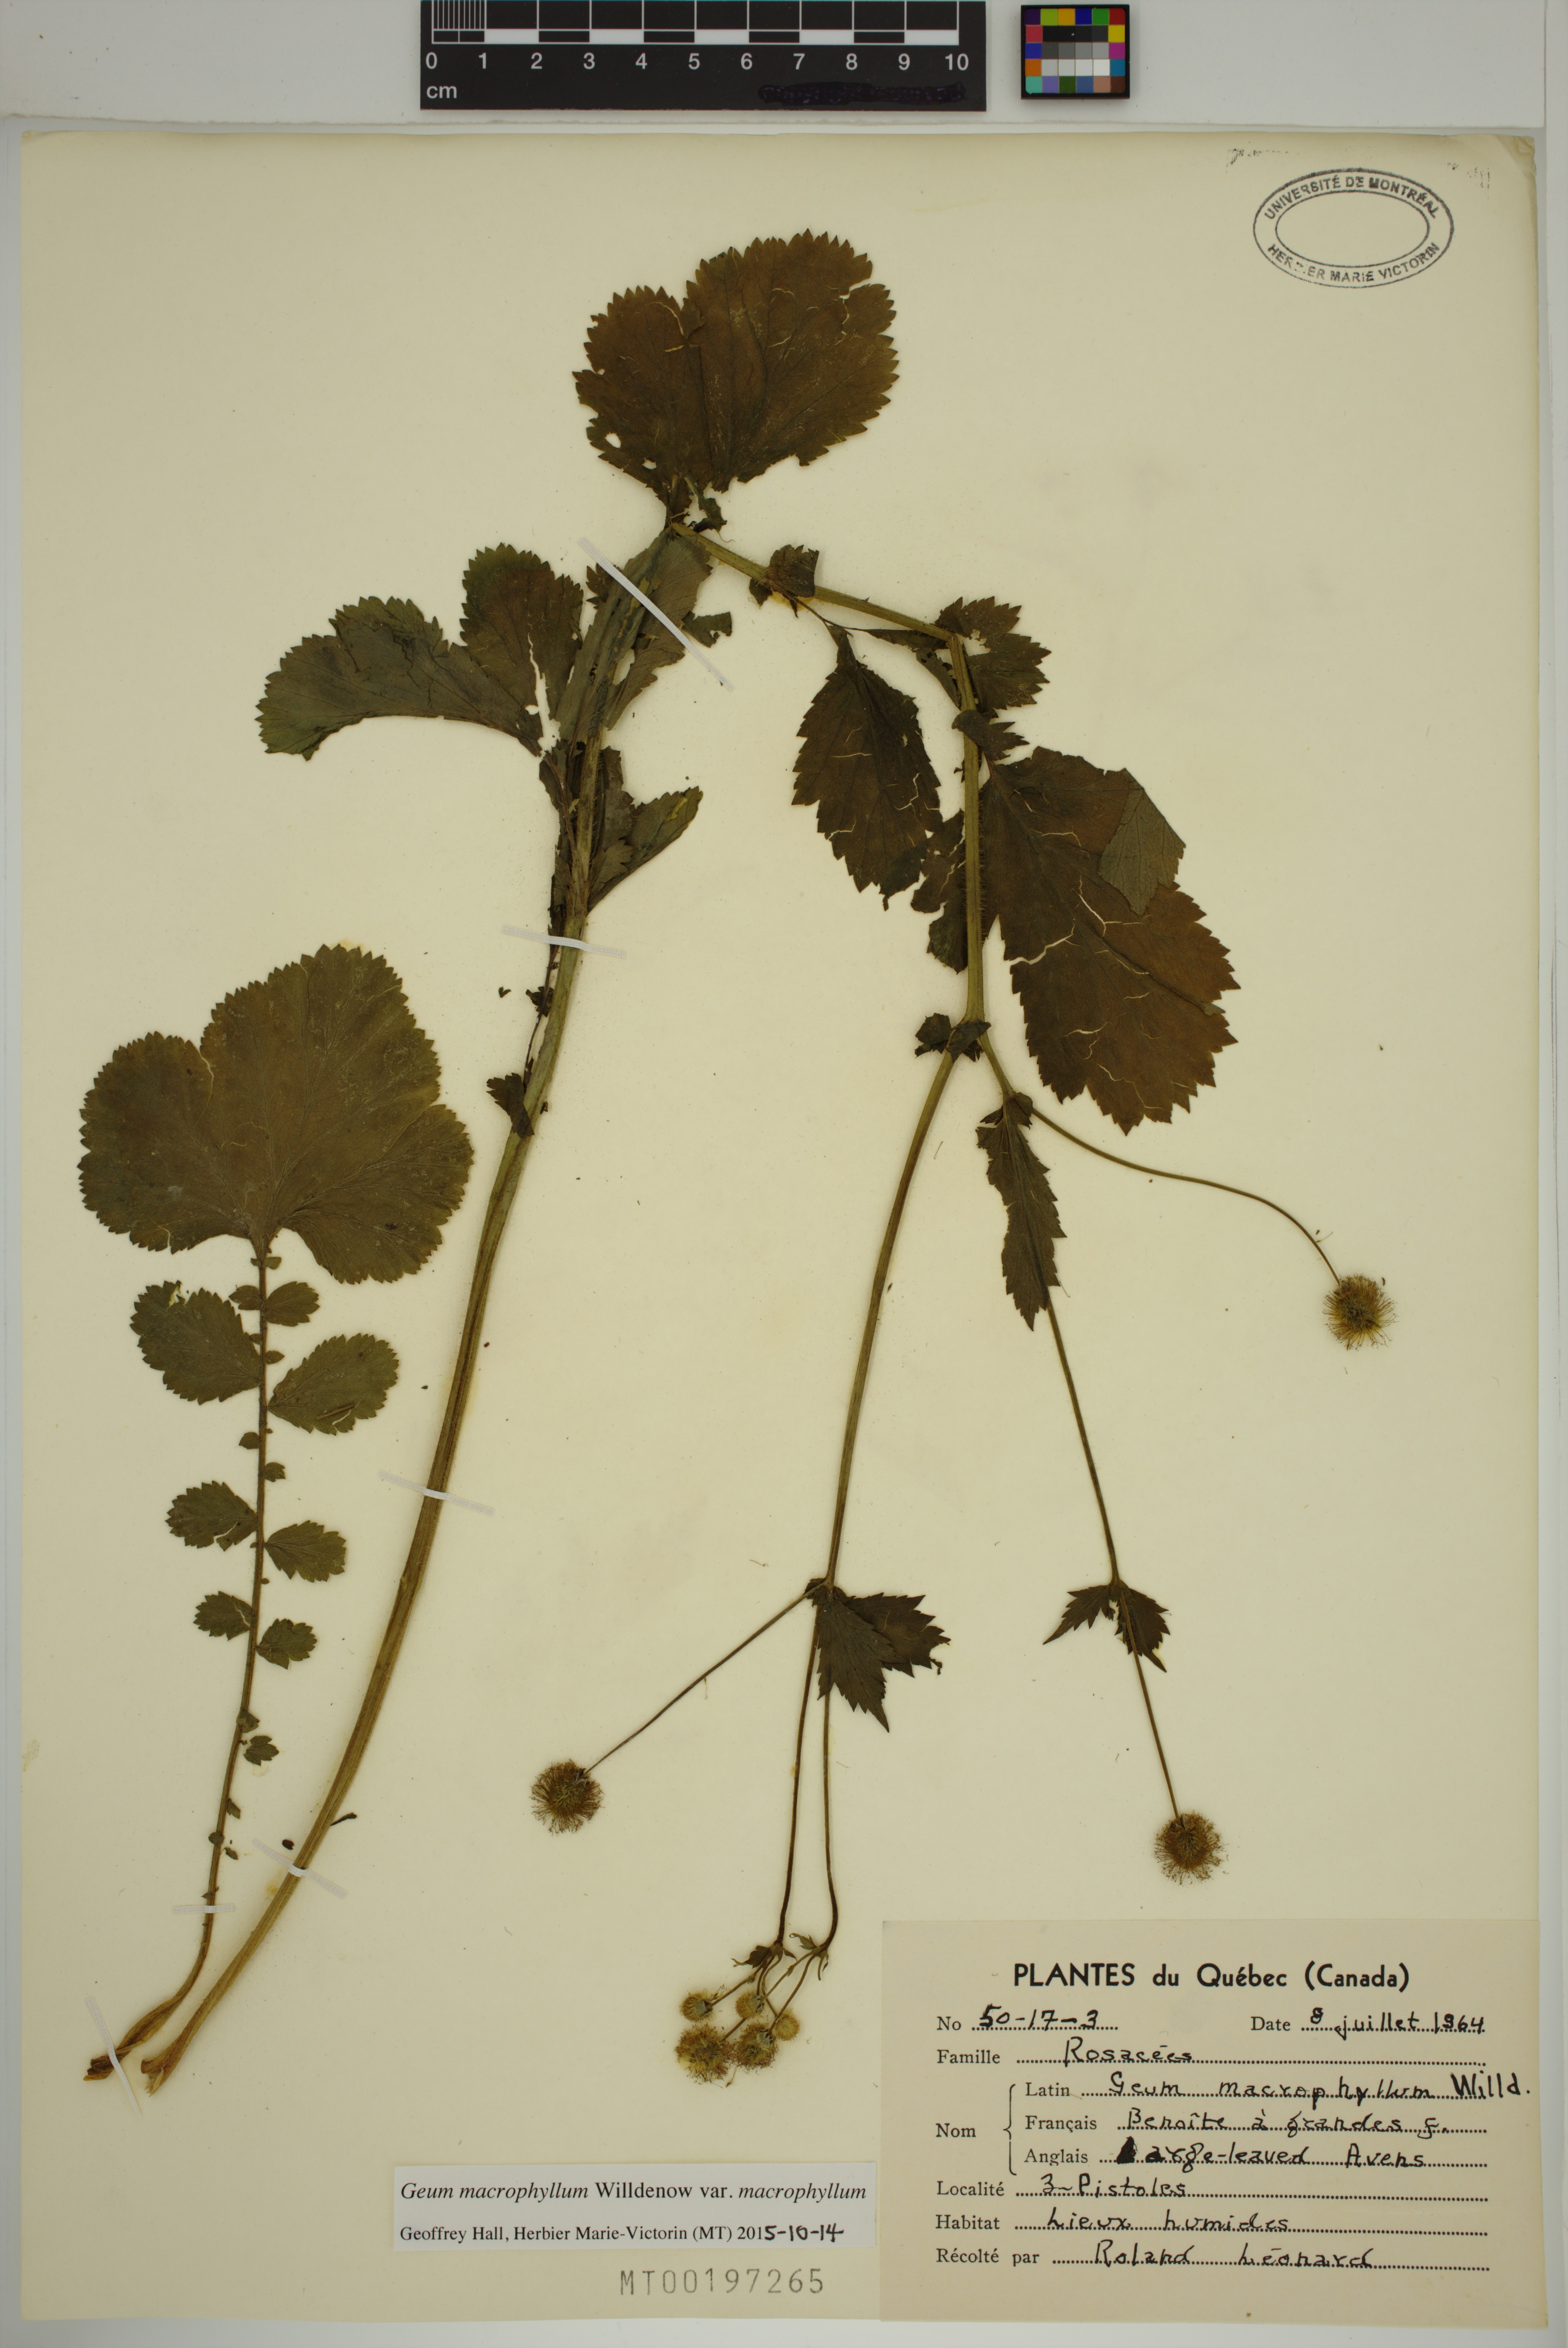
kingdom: Plantae
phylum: Tracheophyta
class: Magnoliopsida
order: Rosales
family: Rosaceae
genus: Geum
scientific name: Geum macrophyllum
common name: Large-leaved avens
